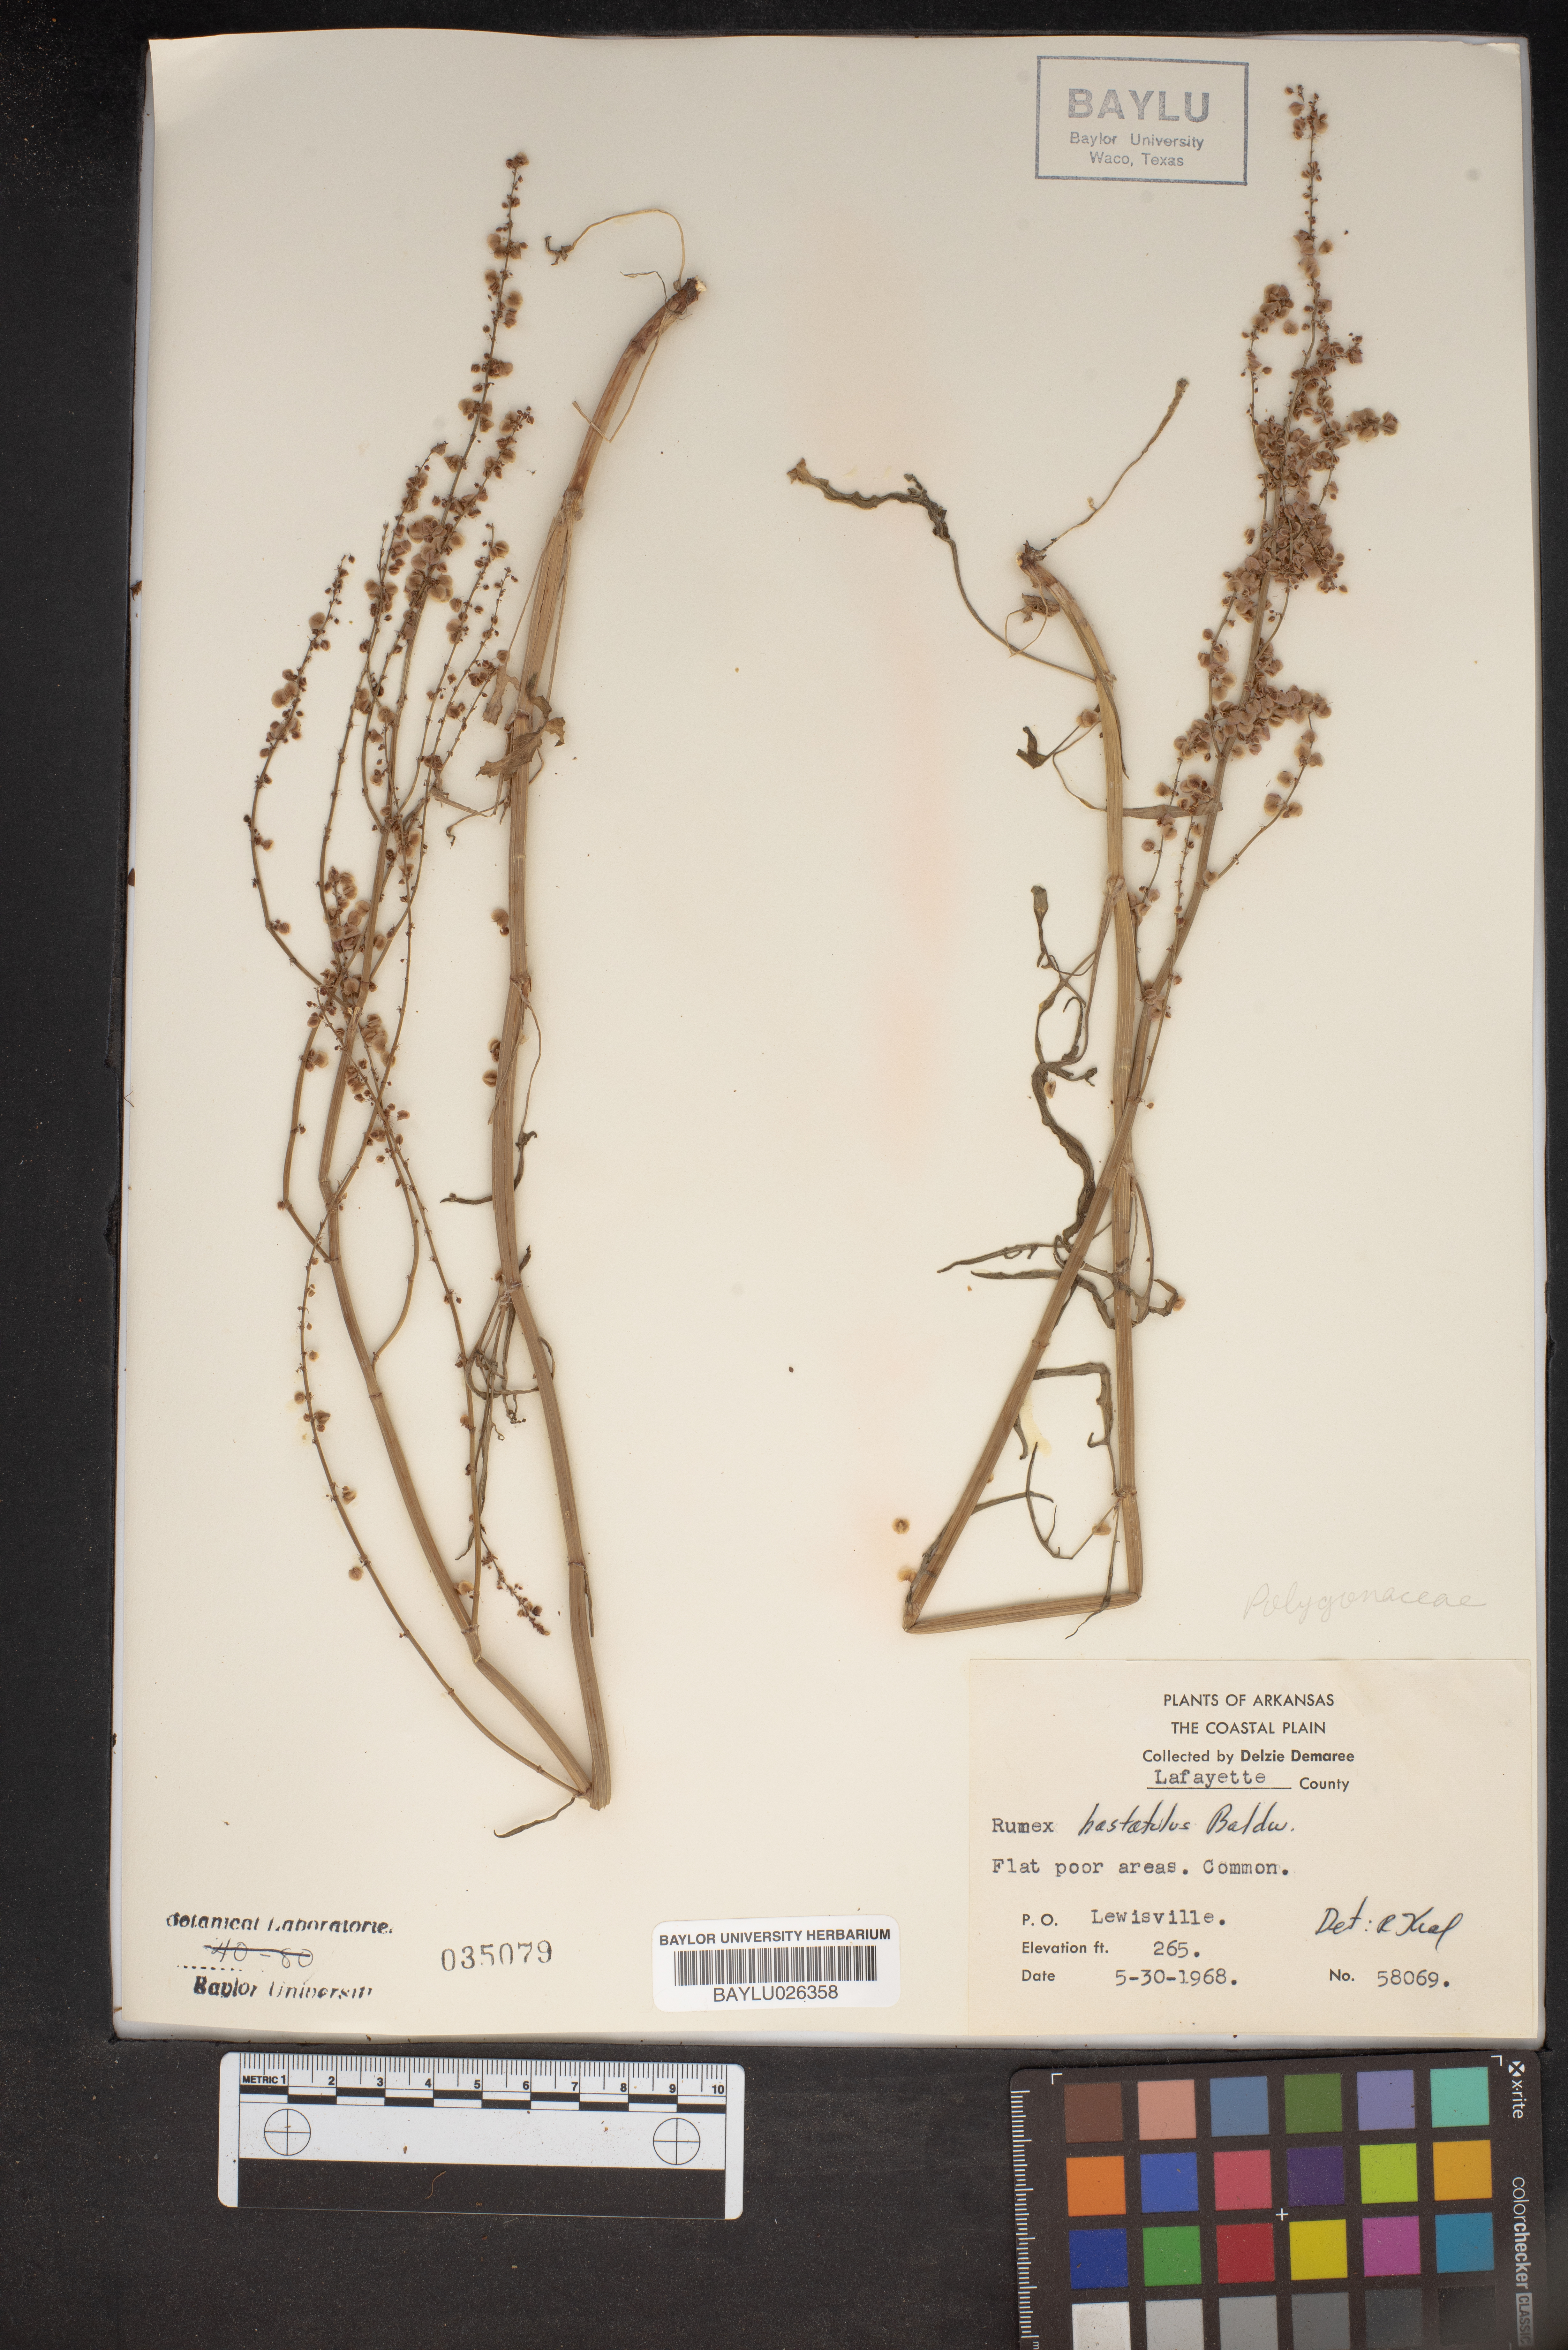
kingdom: Plantae
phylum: Tracheophyta
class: Magnoliopsida
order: Caryophyllales
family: Polygonaceae
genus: Rumex
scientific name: Rumex hastatulus
